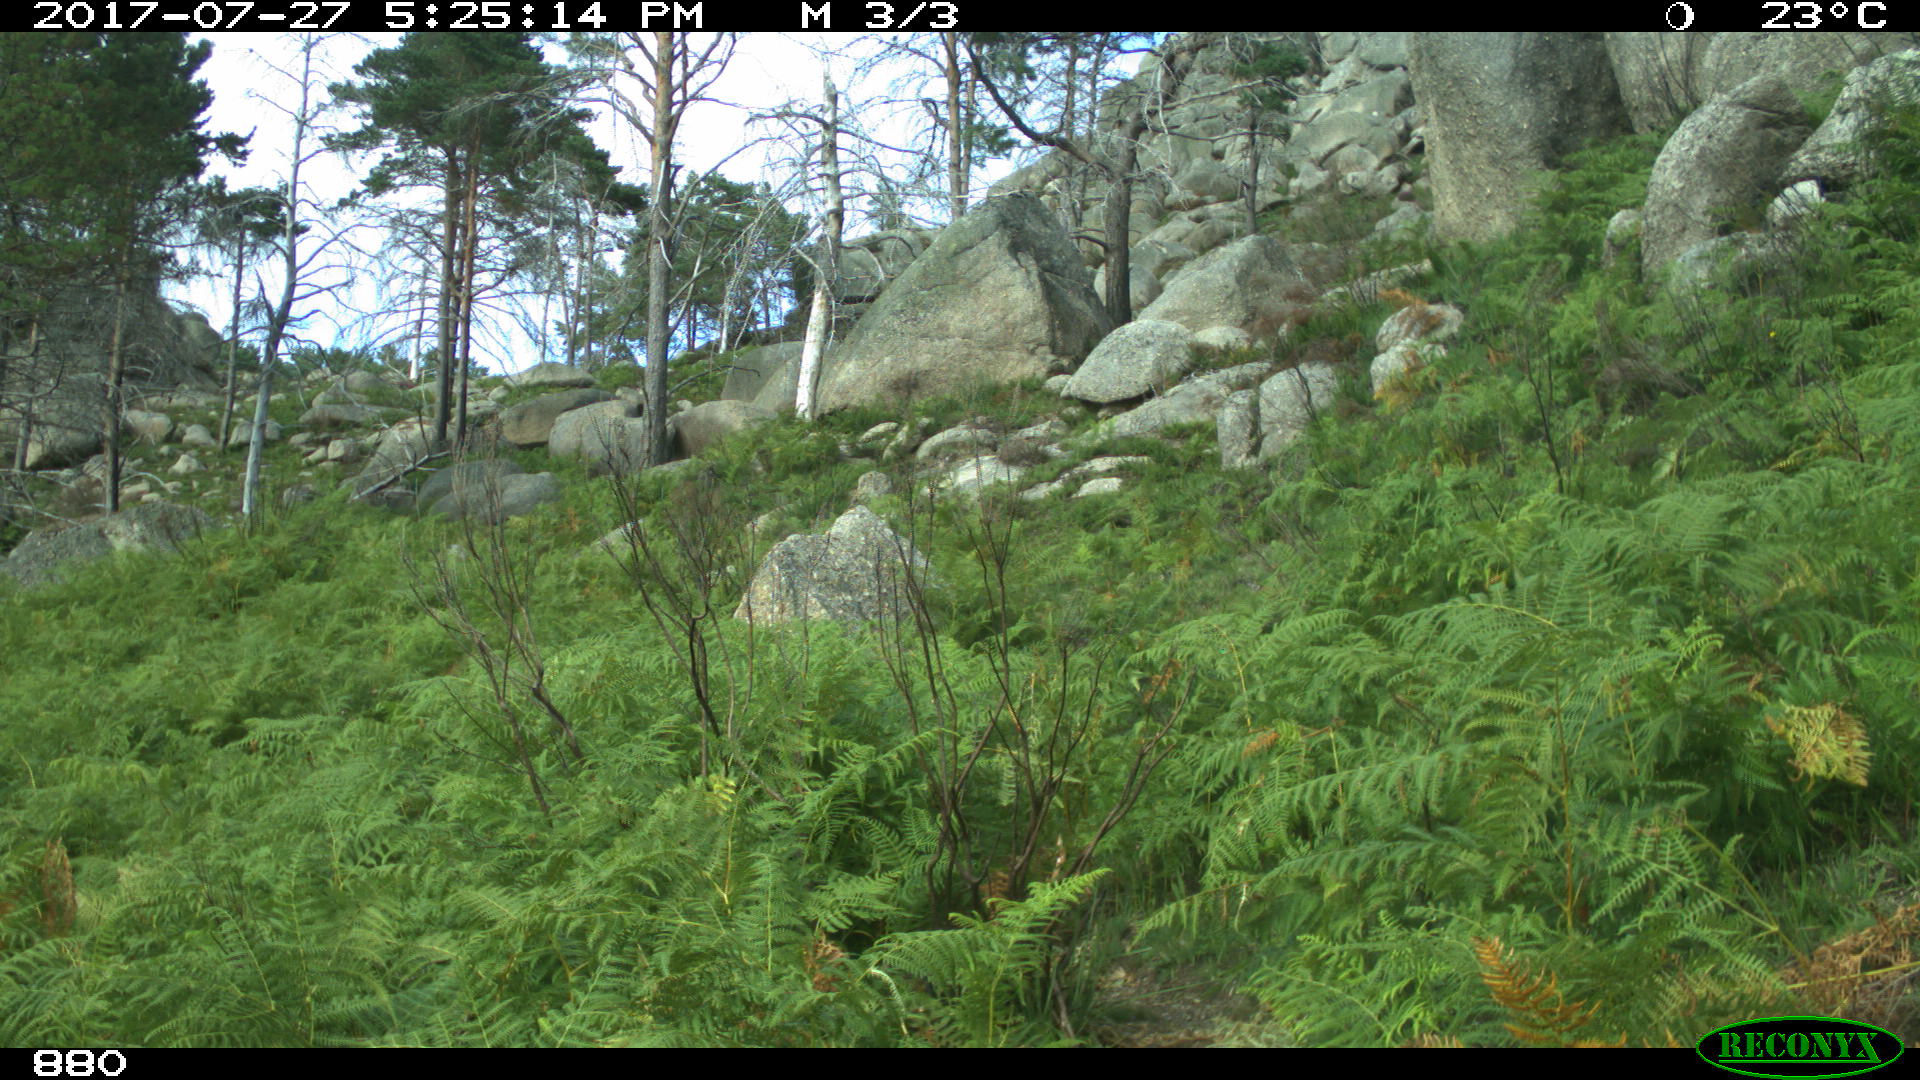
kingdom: Animalia
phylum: Chordata
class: Mammalia
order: Perissodactyla
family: Equidae
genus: Equus
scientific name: Equus caballus
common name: Horse
